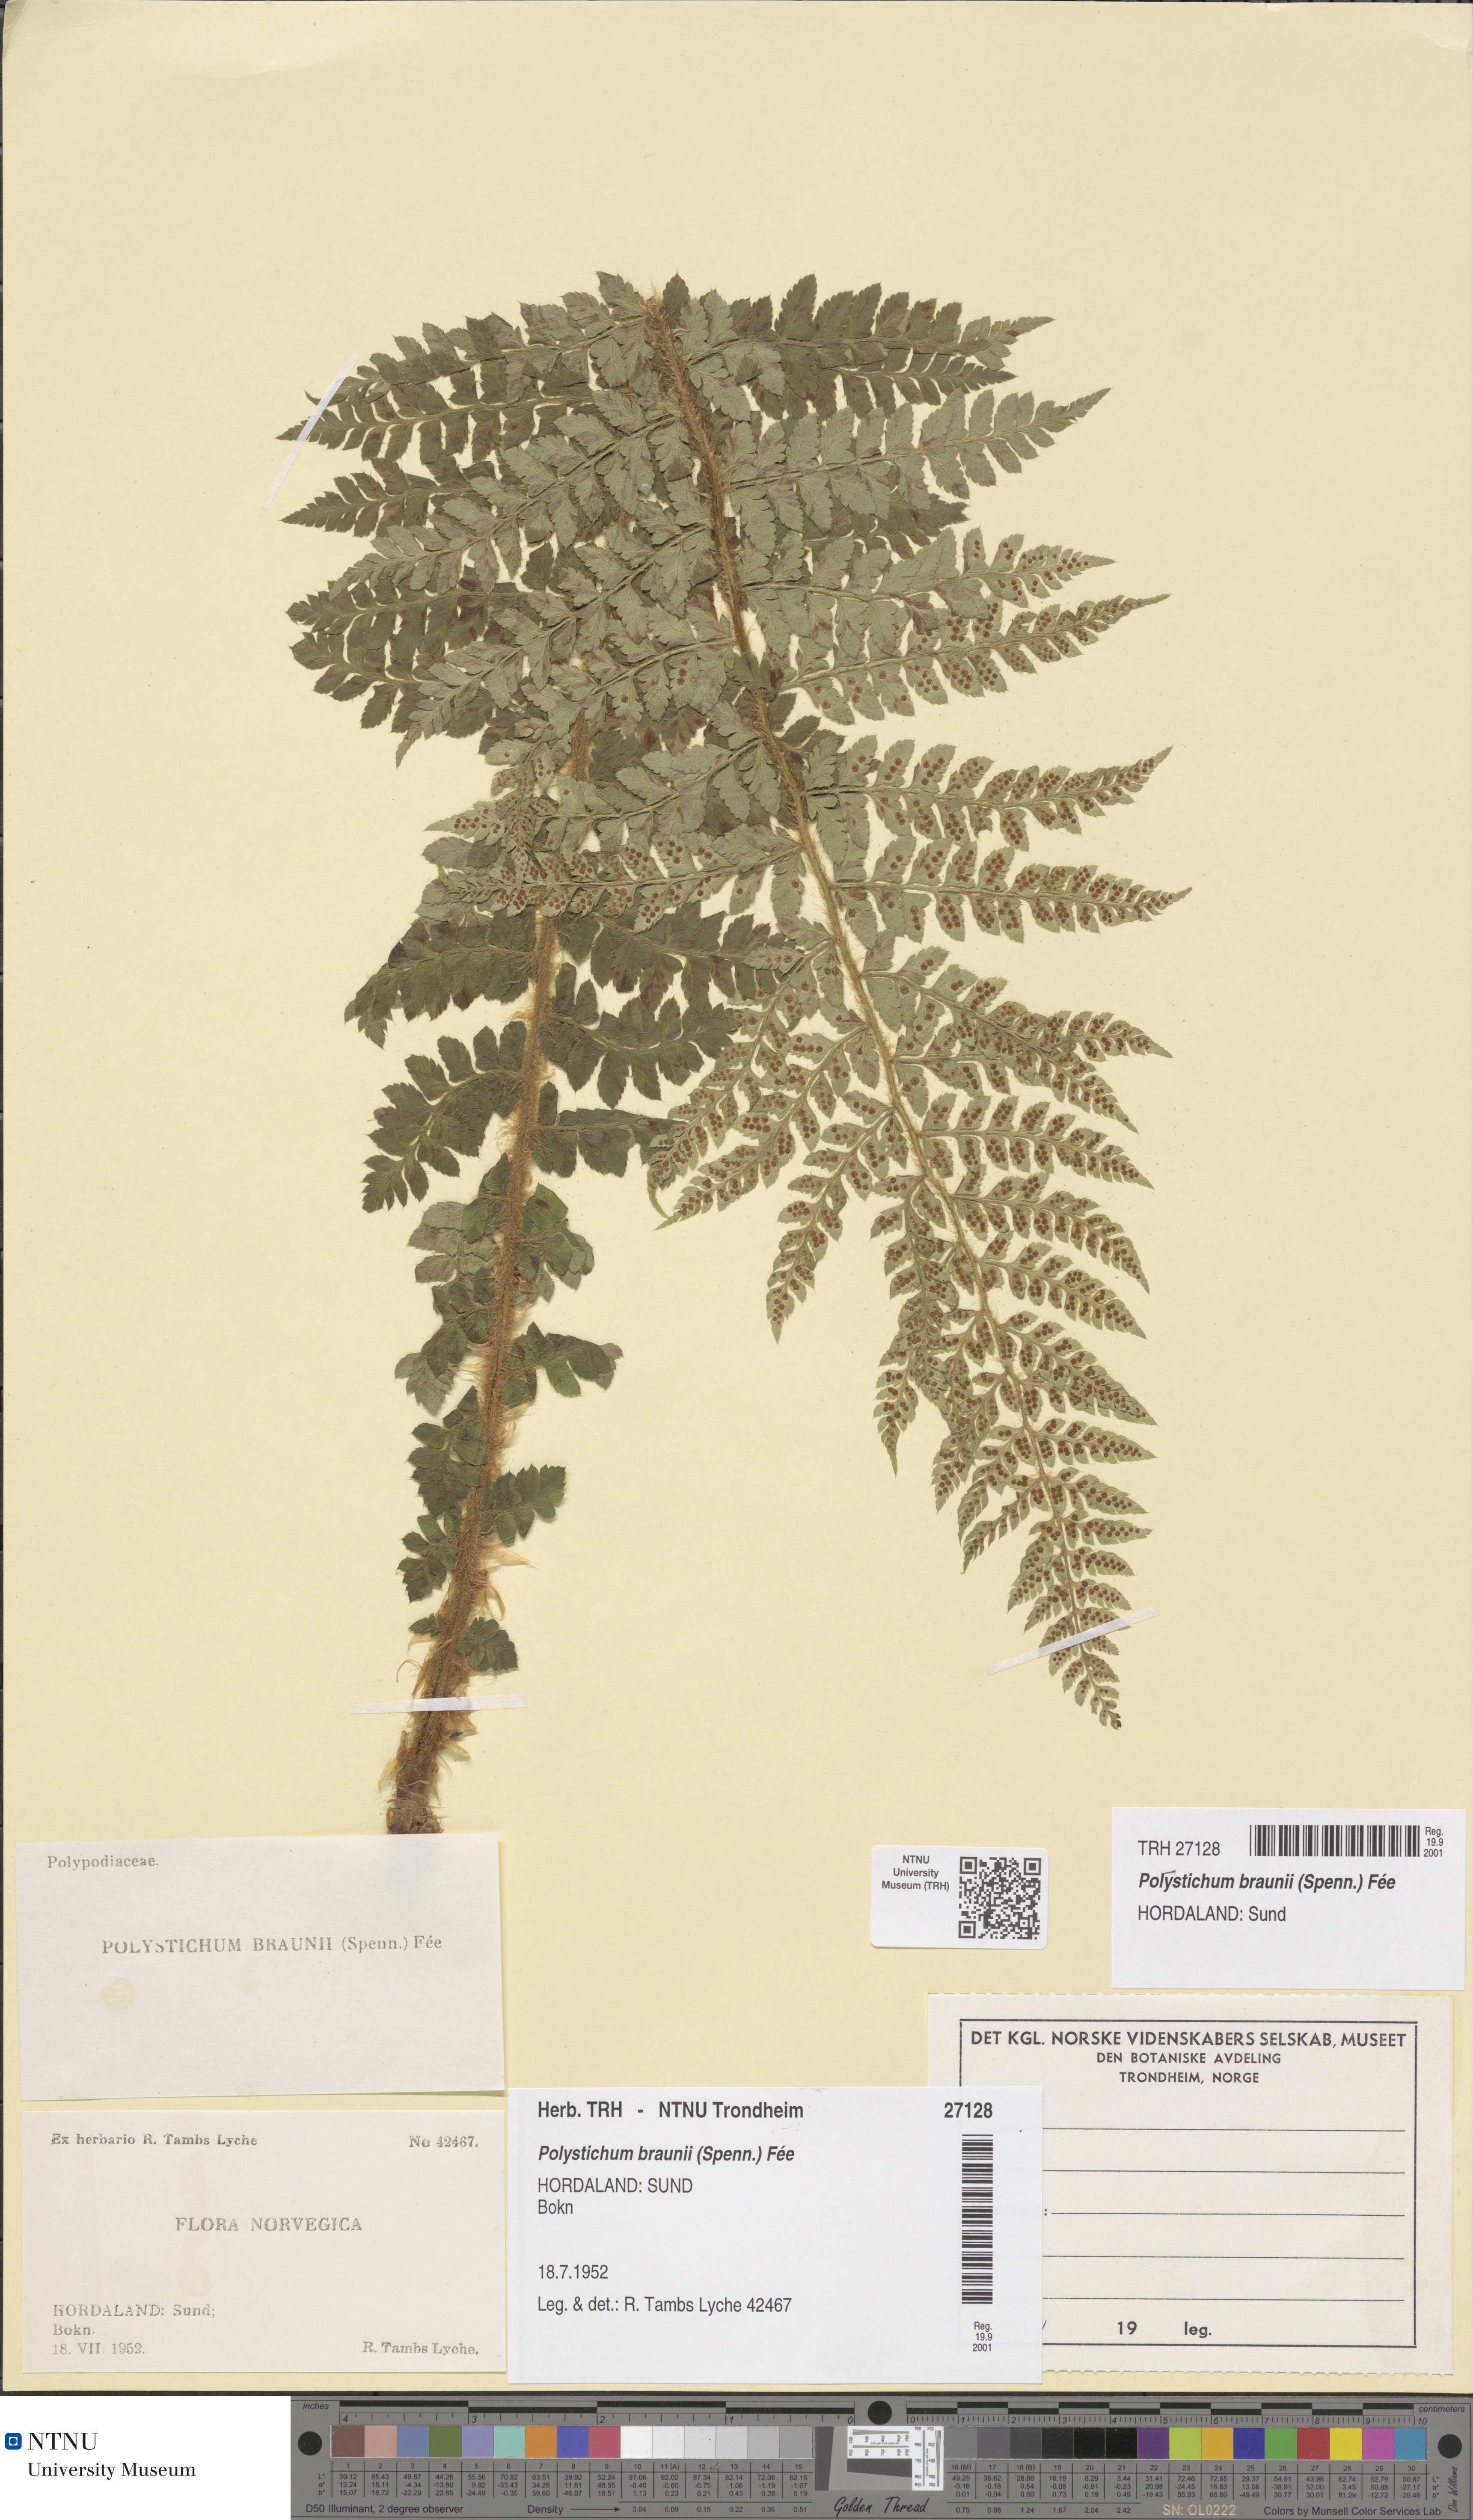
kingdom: Plantae
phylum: Tracheophyta
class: Polypodiopsida
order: Polypodiales
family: Dryopteridaceae
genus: Polystichum
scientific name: Polystichum braunii
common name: Braun's holly fern
